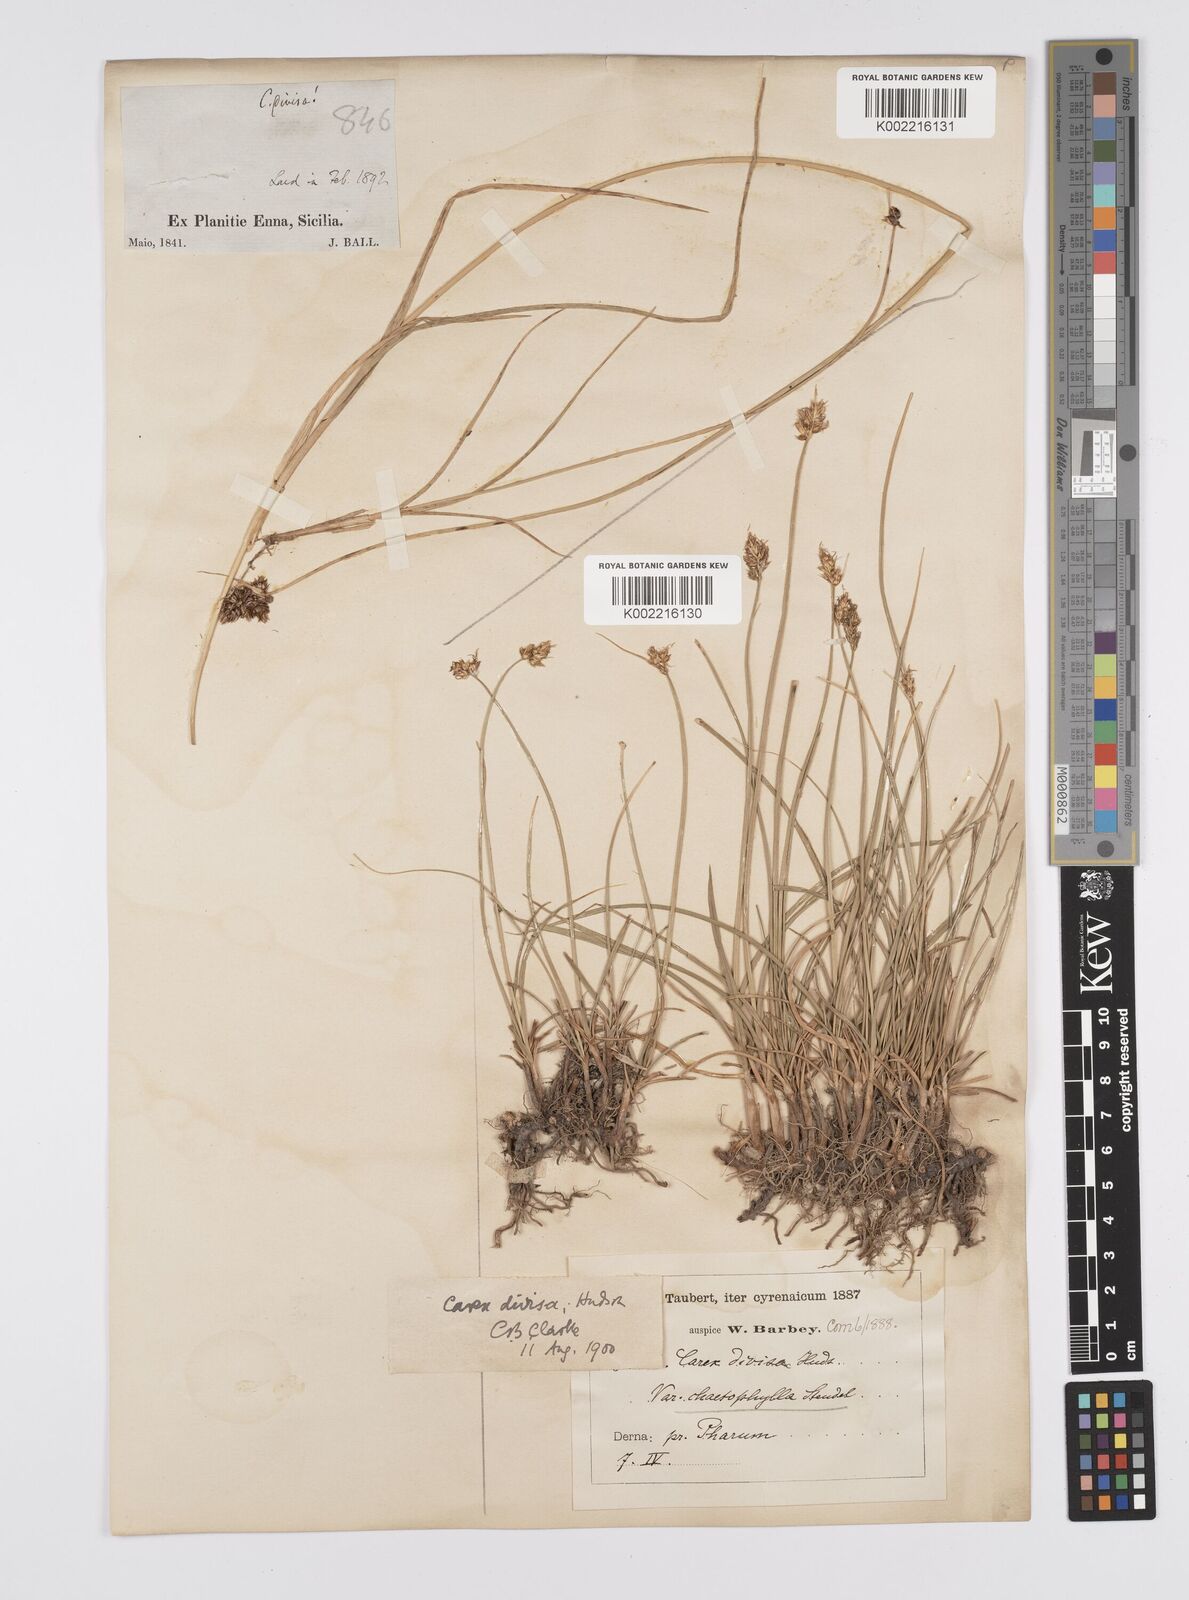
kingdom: Plantae
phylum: Tracheophyta
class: Liliopsida
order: Poales
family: Cyperaceae
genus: Carex
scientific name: Carex divisa
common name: Divided sedge
